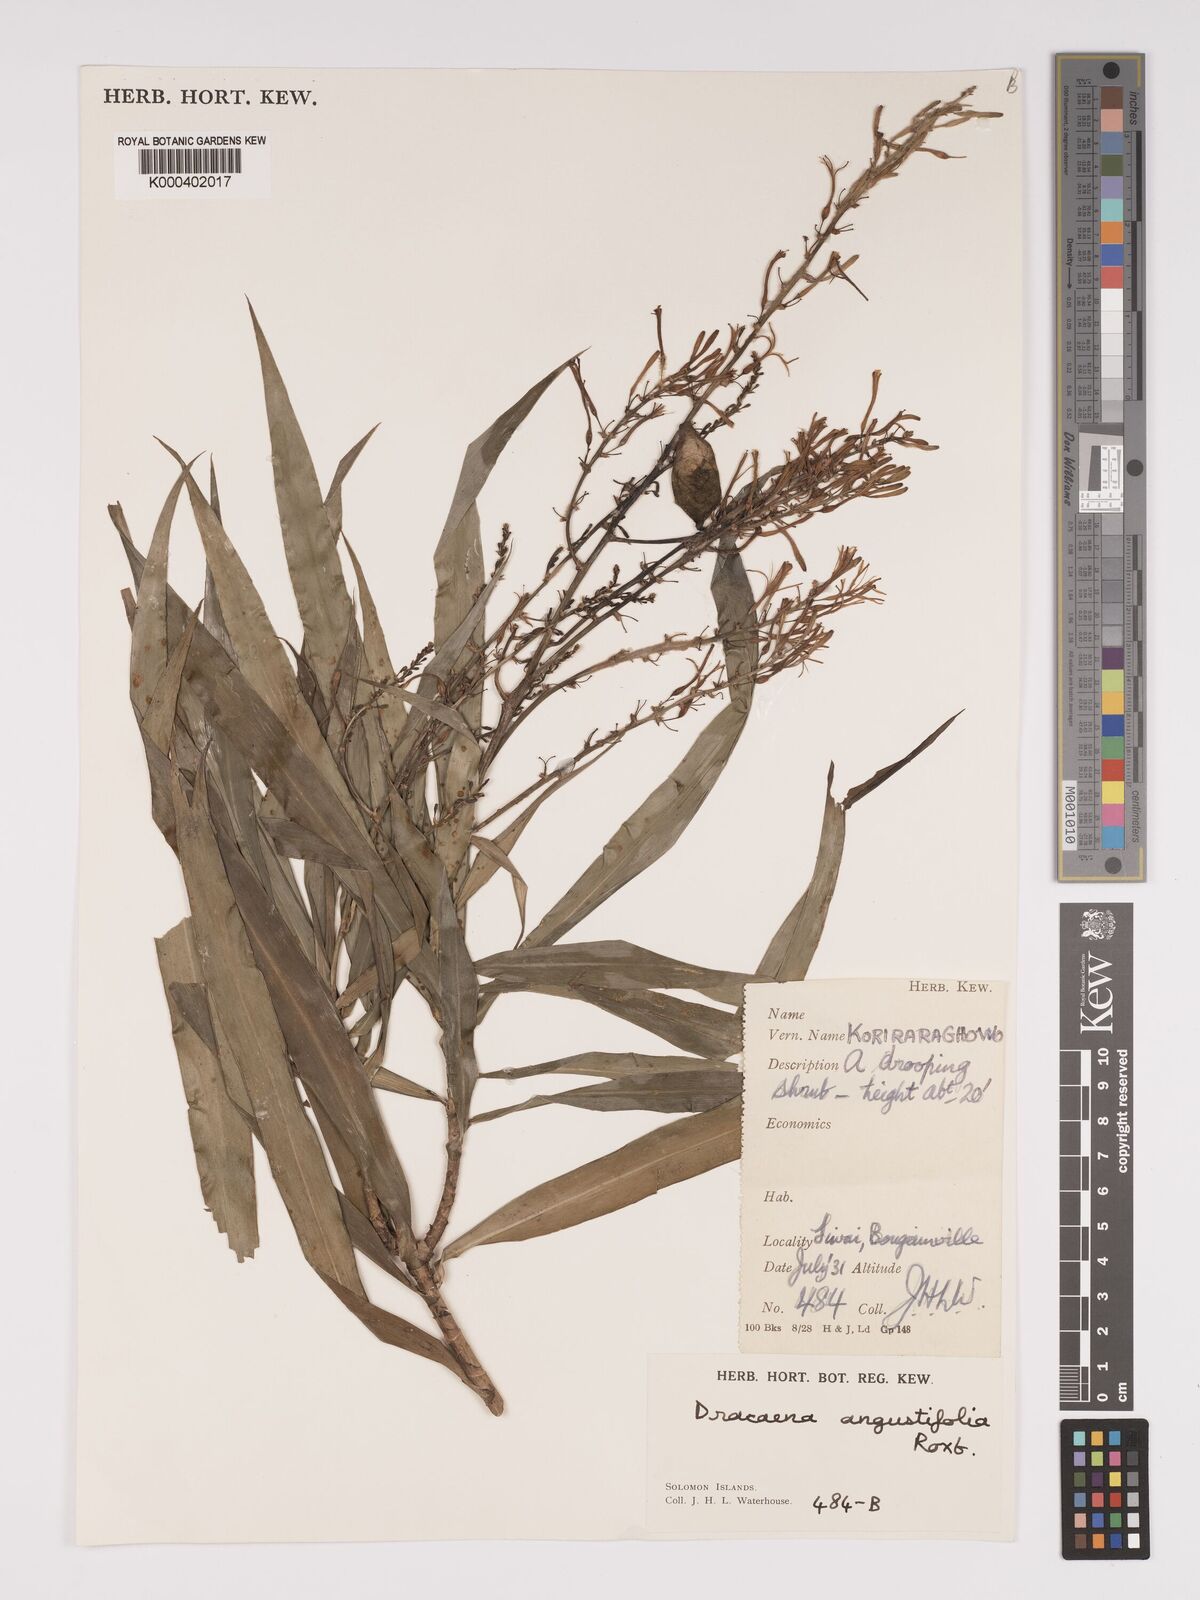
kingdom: Plantae
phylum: Tracheophyta
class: Liliopsida
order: Asparagales
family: Asparagaceae
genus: Dracaena
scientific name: Dracaena angustifolia
